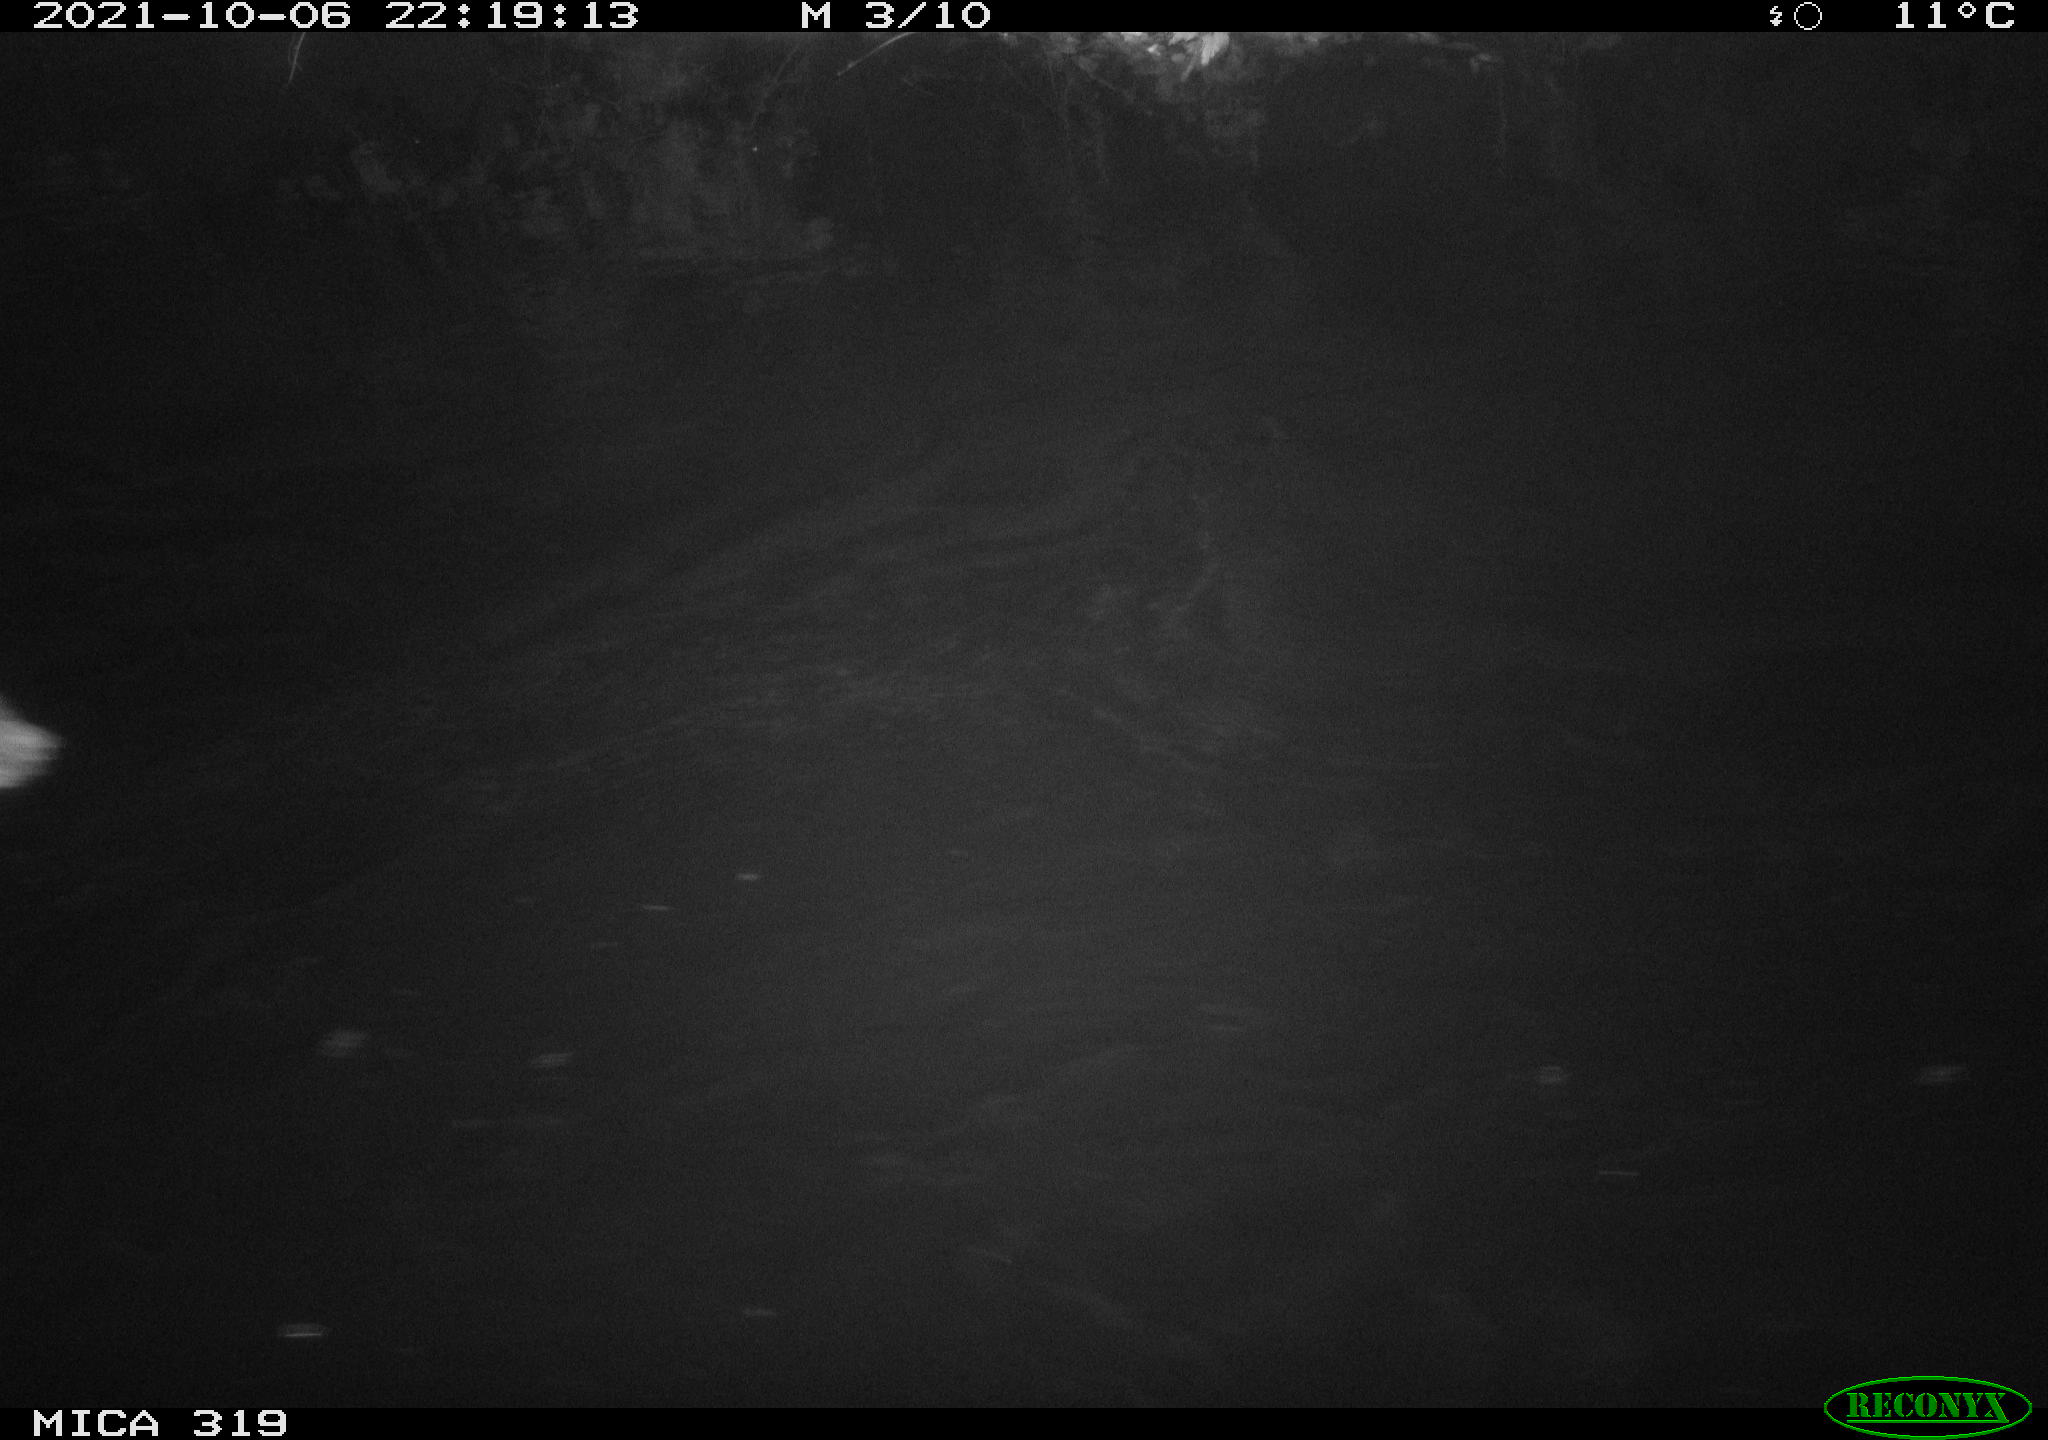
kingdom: Animalia
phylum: Chordata
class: Aves
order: Anseriformes
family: Anatidae
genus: Anas
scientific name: Anas platyrhynchos
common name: Mallard
